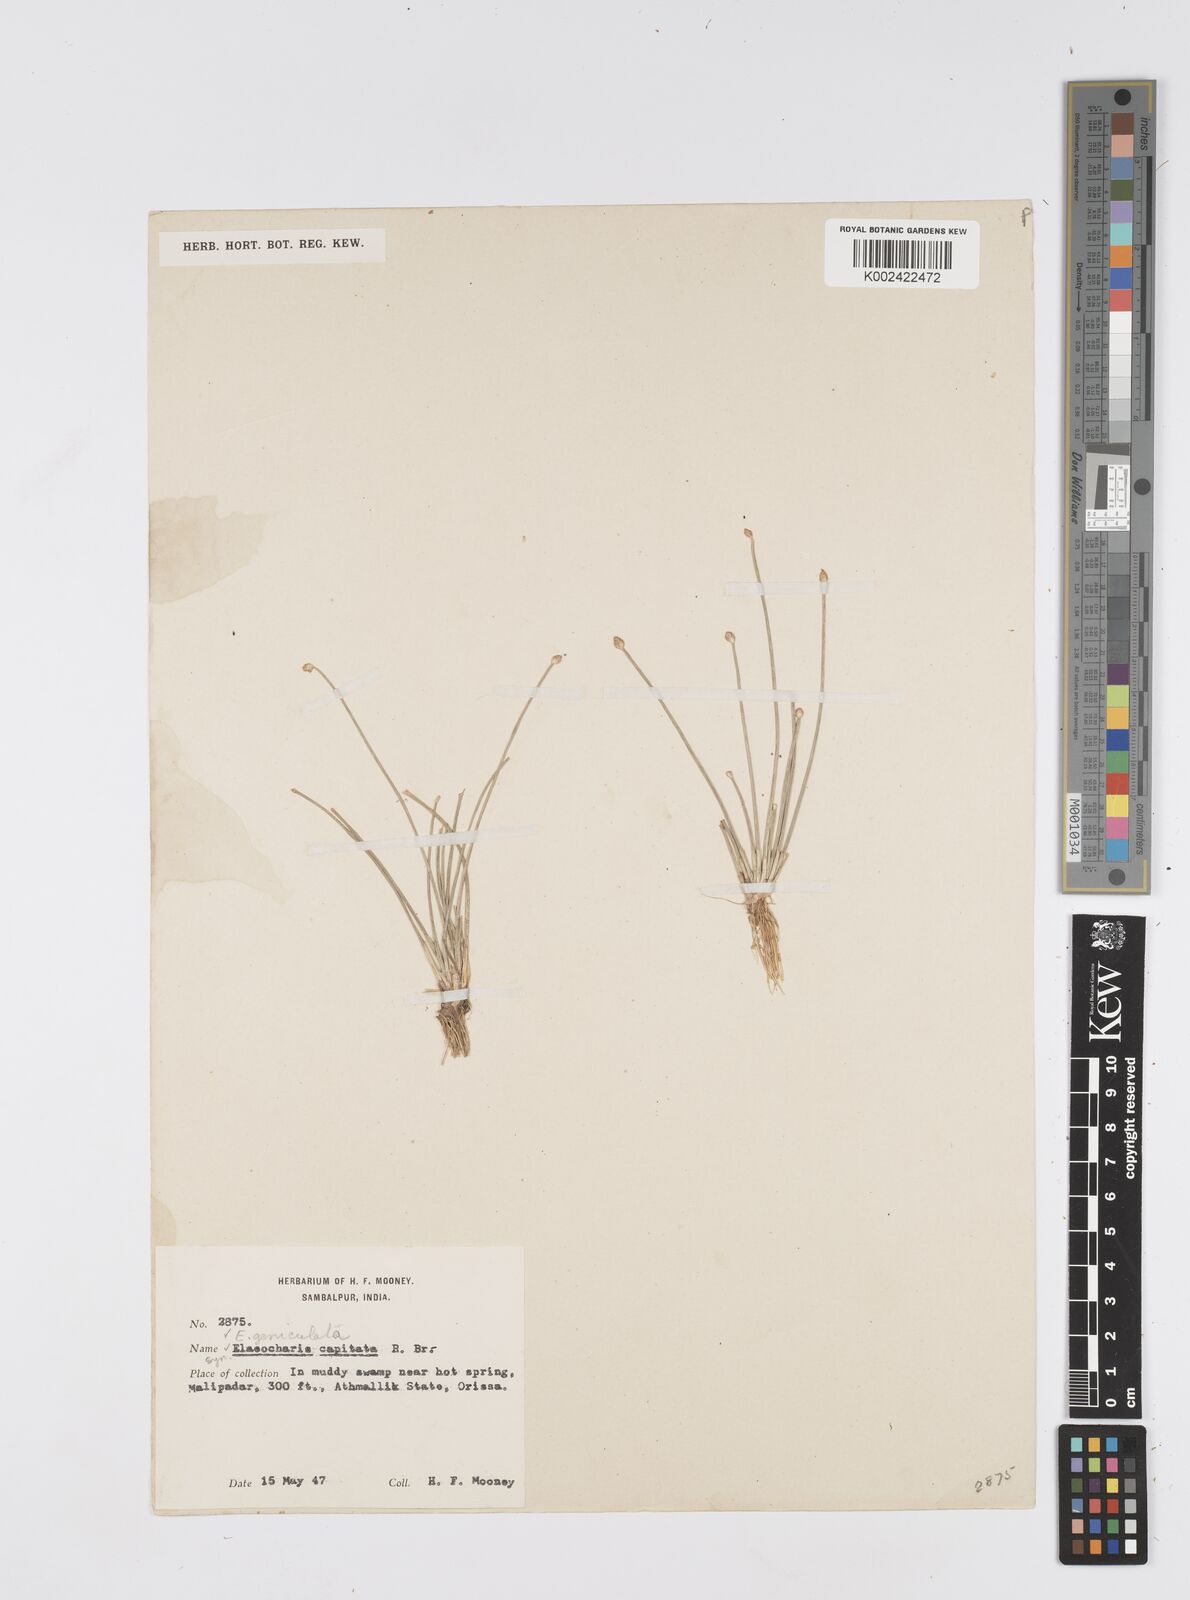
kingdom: Plantae
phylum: Tracheophyta
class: Liliopsida
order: Poales
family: Cyperaceae
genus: Eleocharis
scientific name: Eleocharis geniculata
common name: Canada spikesedge
